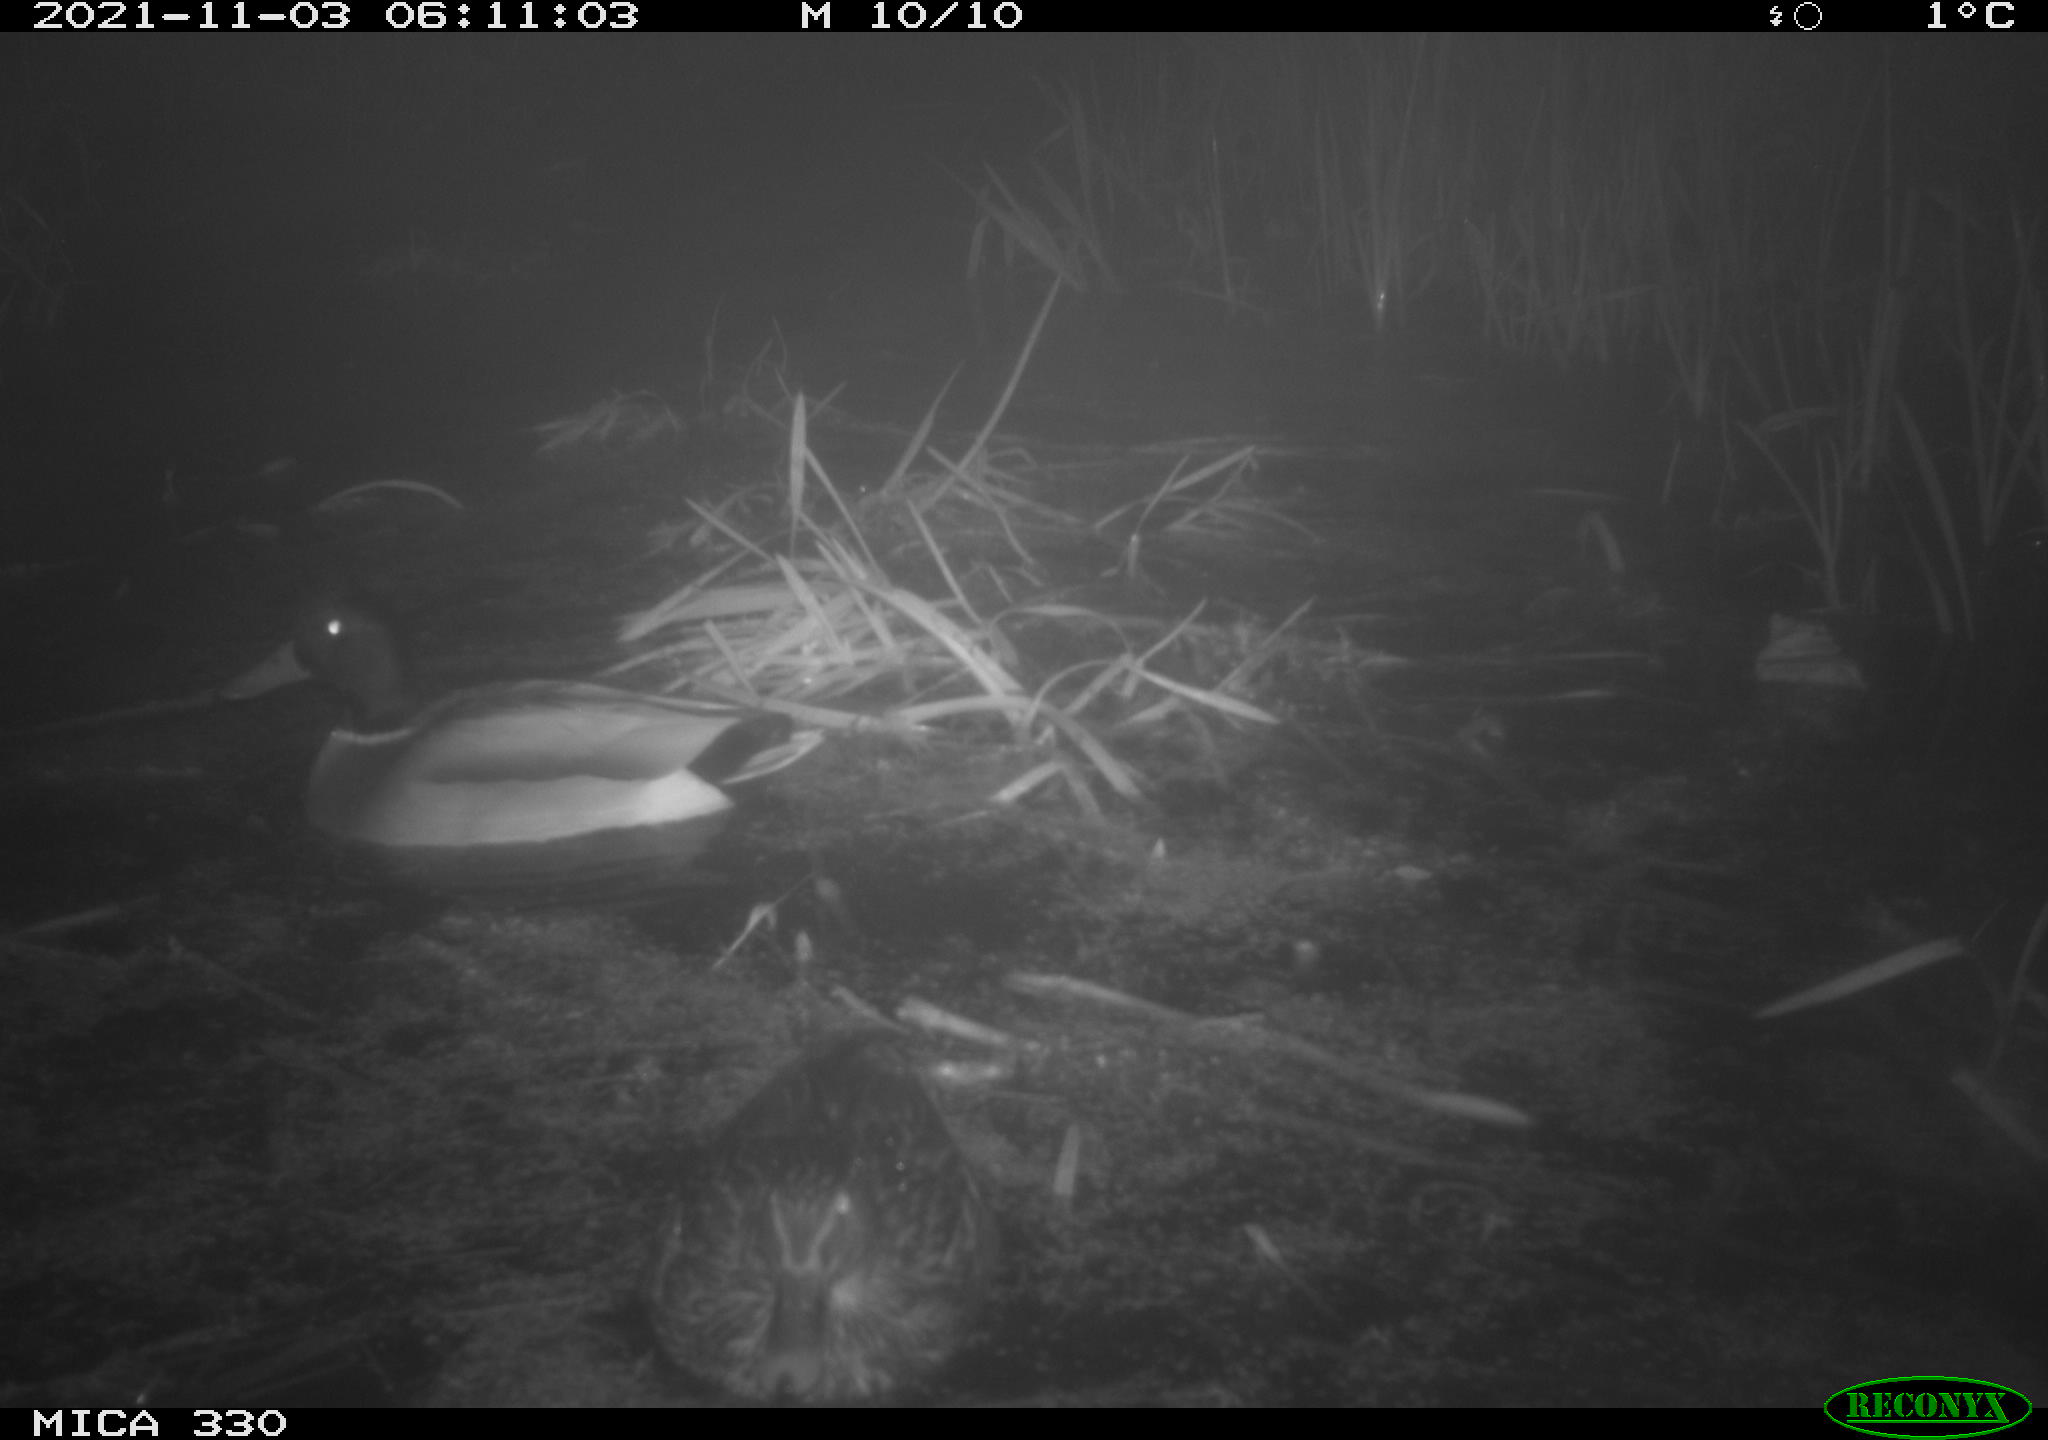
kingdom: Animalia
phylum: Chordata
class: Aves
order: Anseriformes
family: Anatidae
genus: Anas
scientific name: Anas platyrhynchos
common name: Mallard
